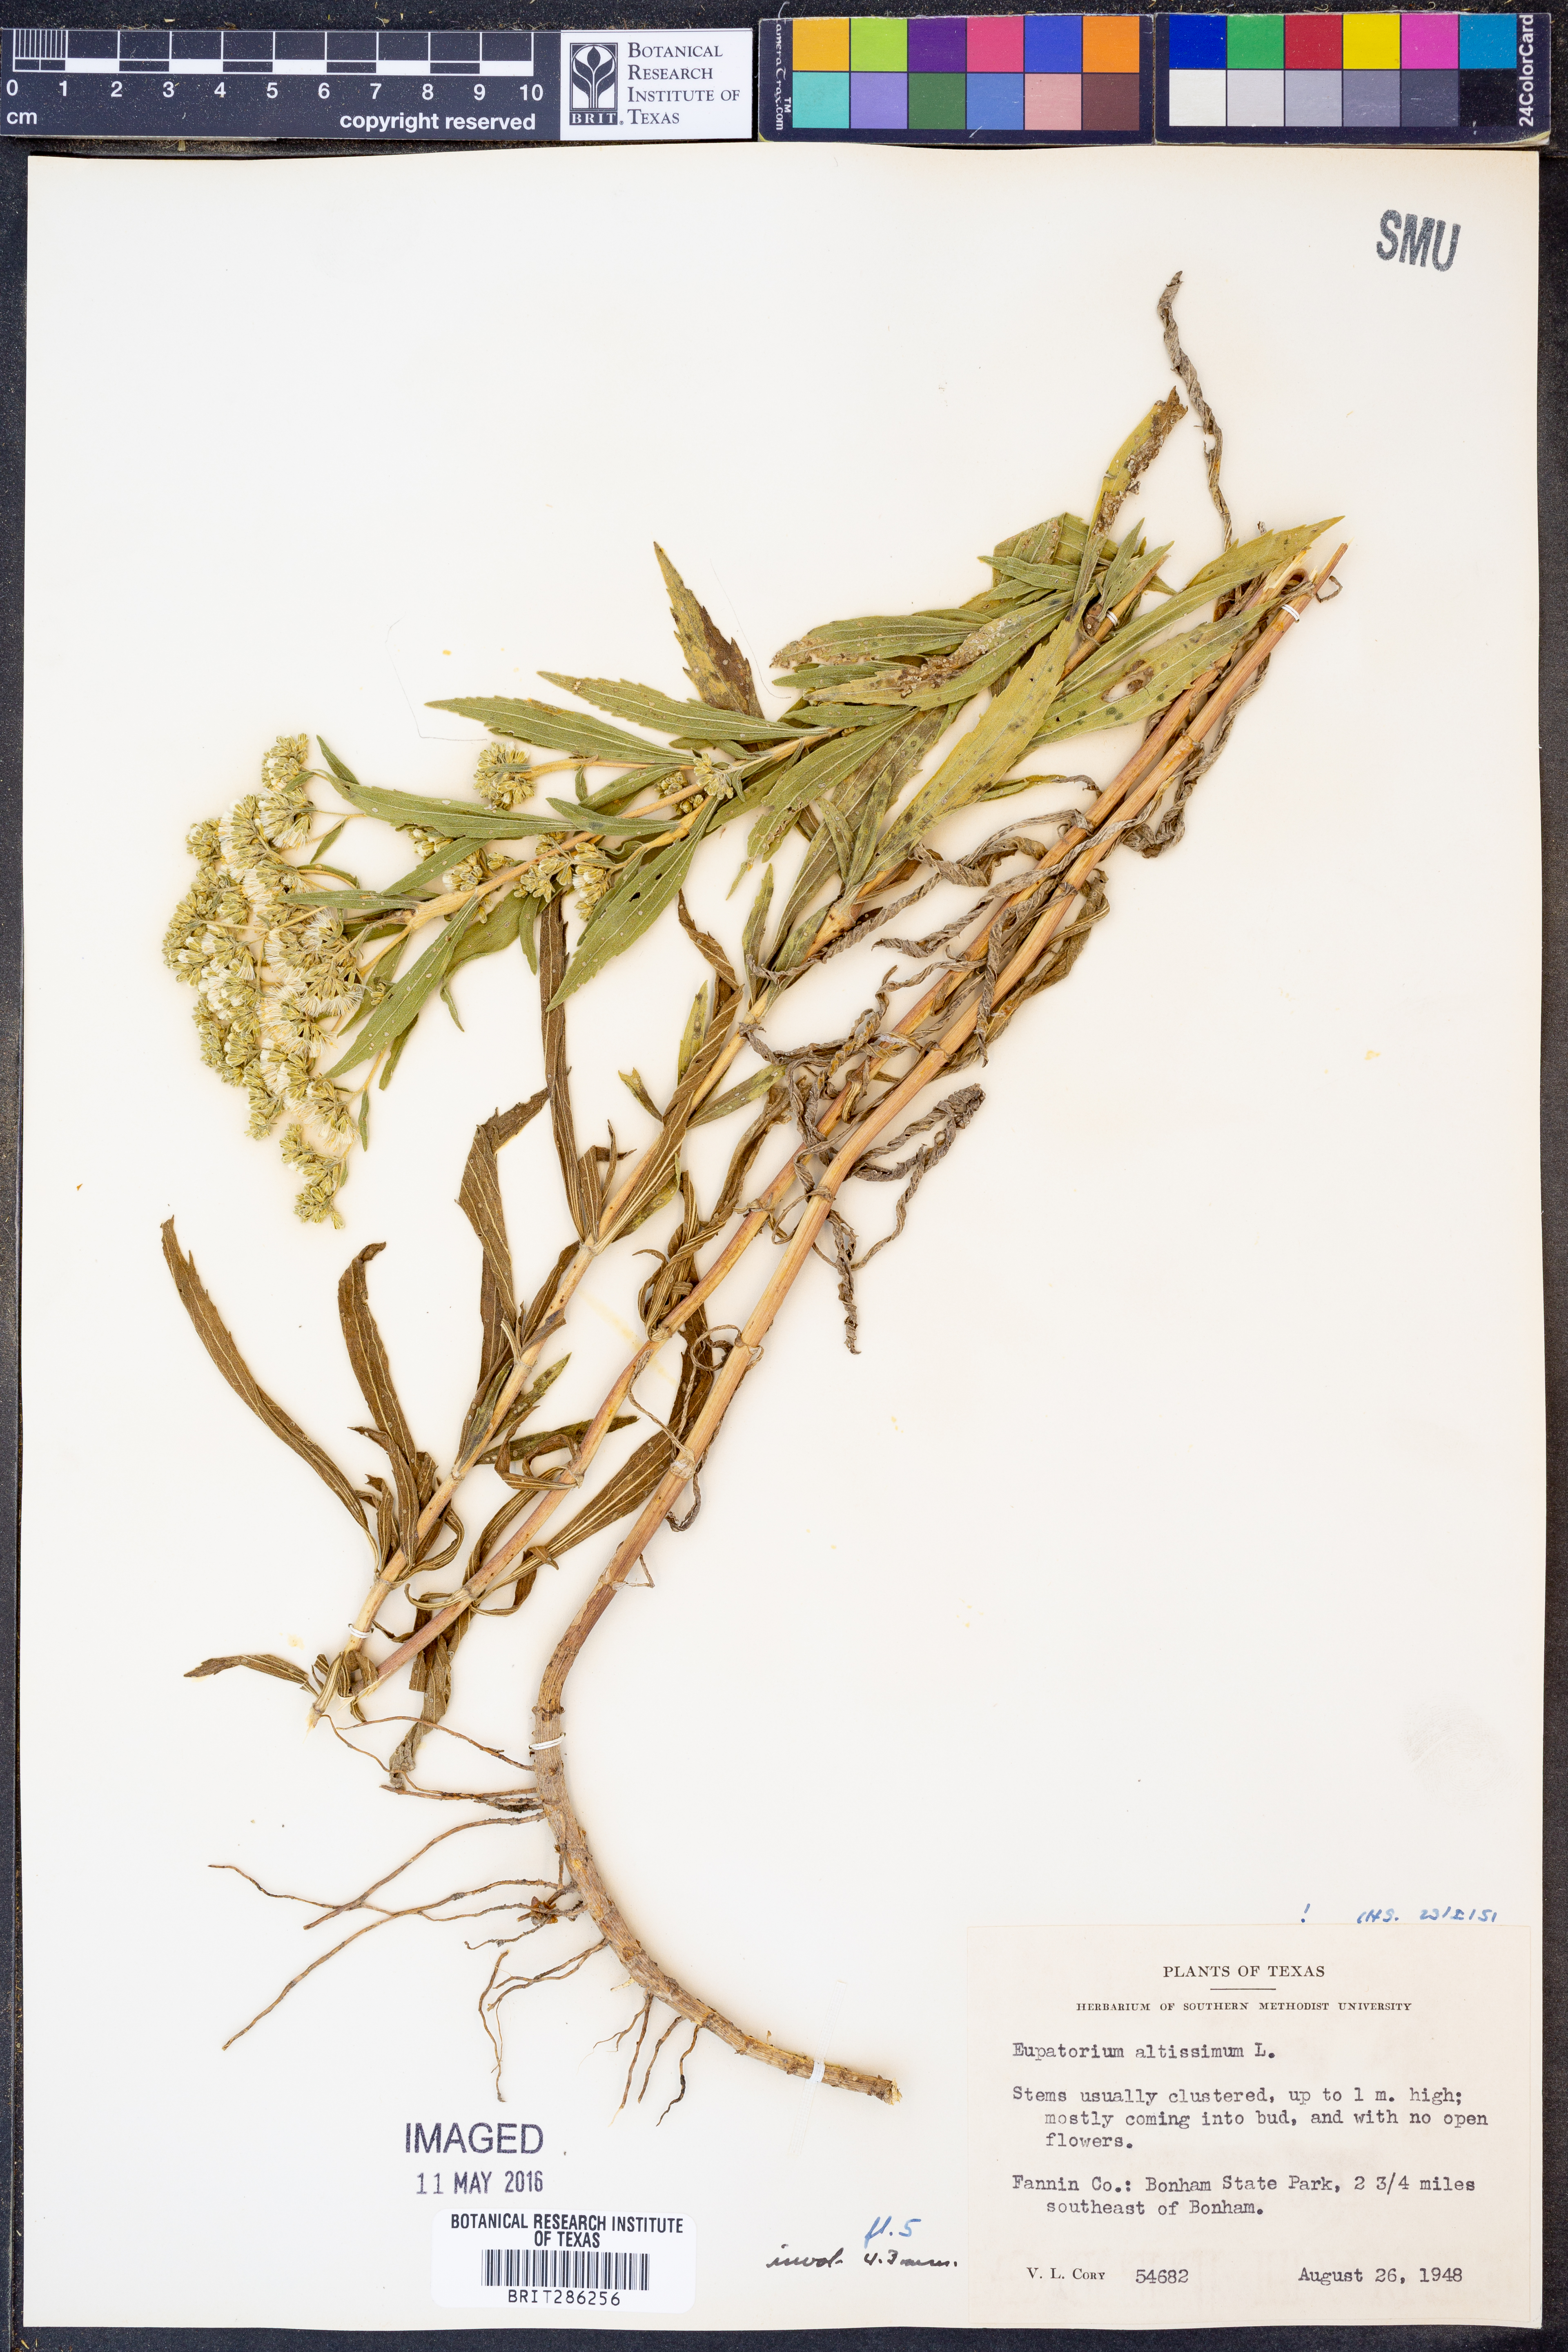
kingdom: Plantae
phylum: Tracheophyta
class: Magnoliopsida
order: Asterales
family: Asteraceae
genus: Eupatorium
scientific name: Eupatorium altissimum
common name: Tall thoroughwort
